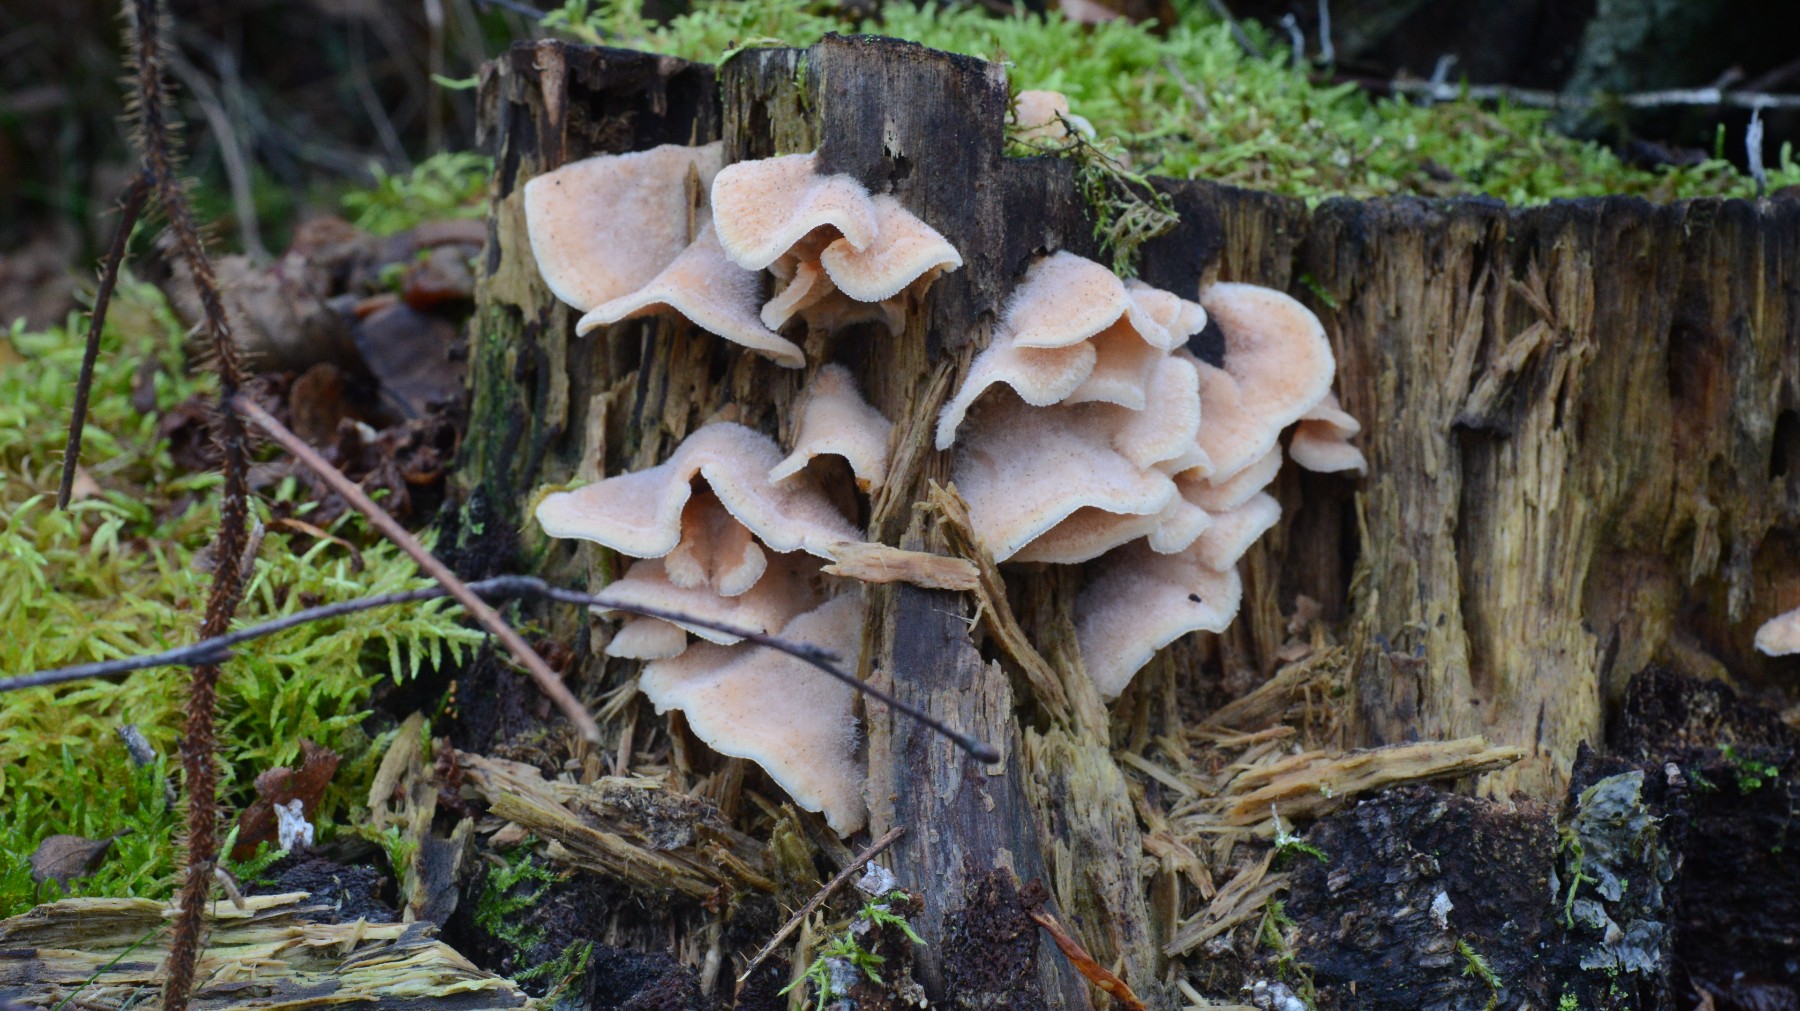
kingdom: Fungi
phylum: Basidiomycota
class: Agaricomycetes
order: Polyporales
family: Meruliaceae
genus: Phlebia
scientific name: Phlebia tremellosa
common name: bævrende åresvamp
